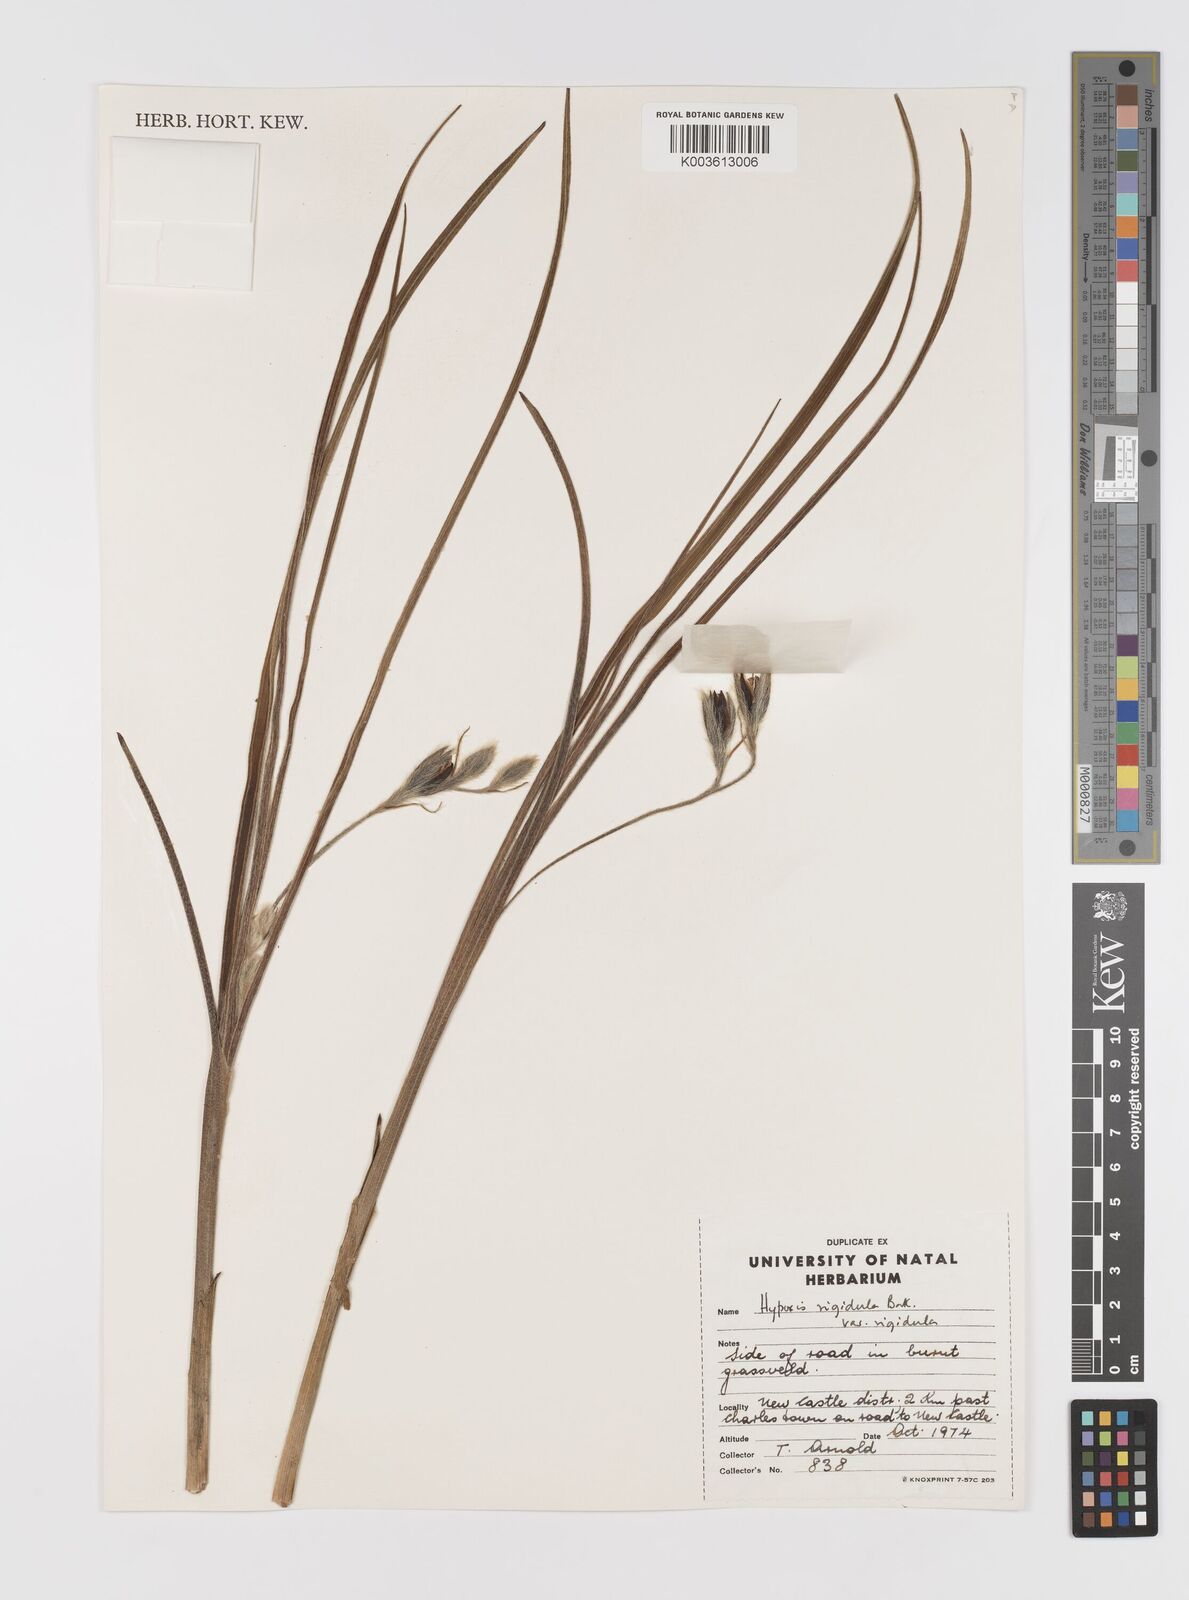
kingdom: Plantae
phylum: Tracheophyta
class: Liliopsida
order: Asparagales
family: Hypoxidaceae
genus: Hypoxis
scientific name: Hypoxis rigidula
